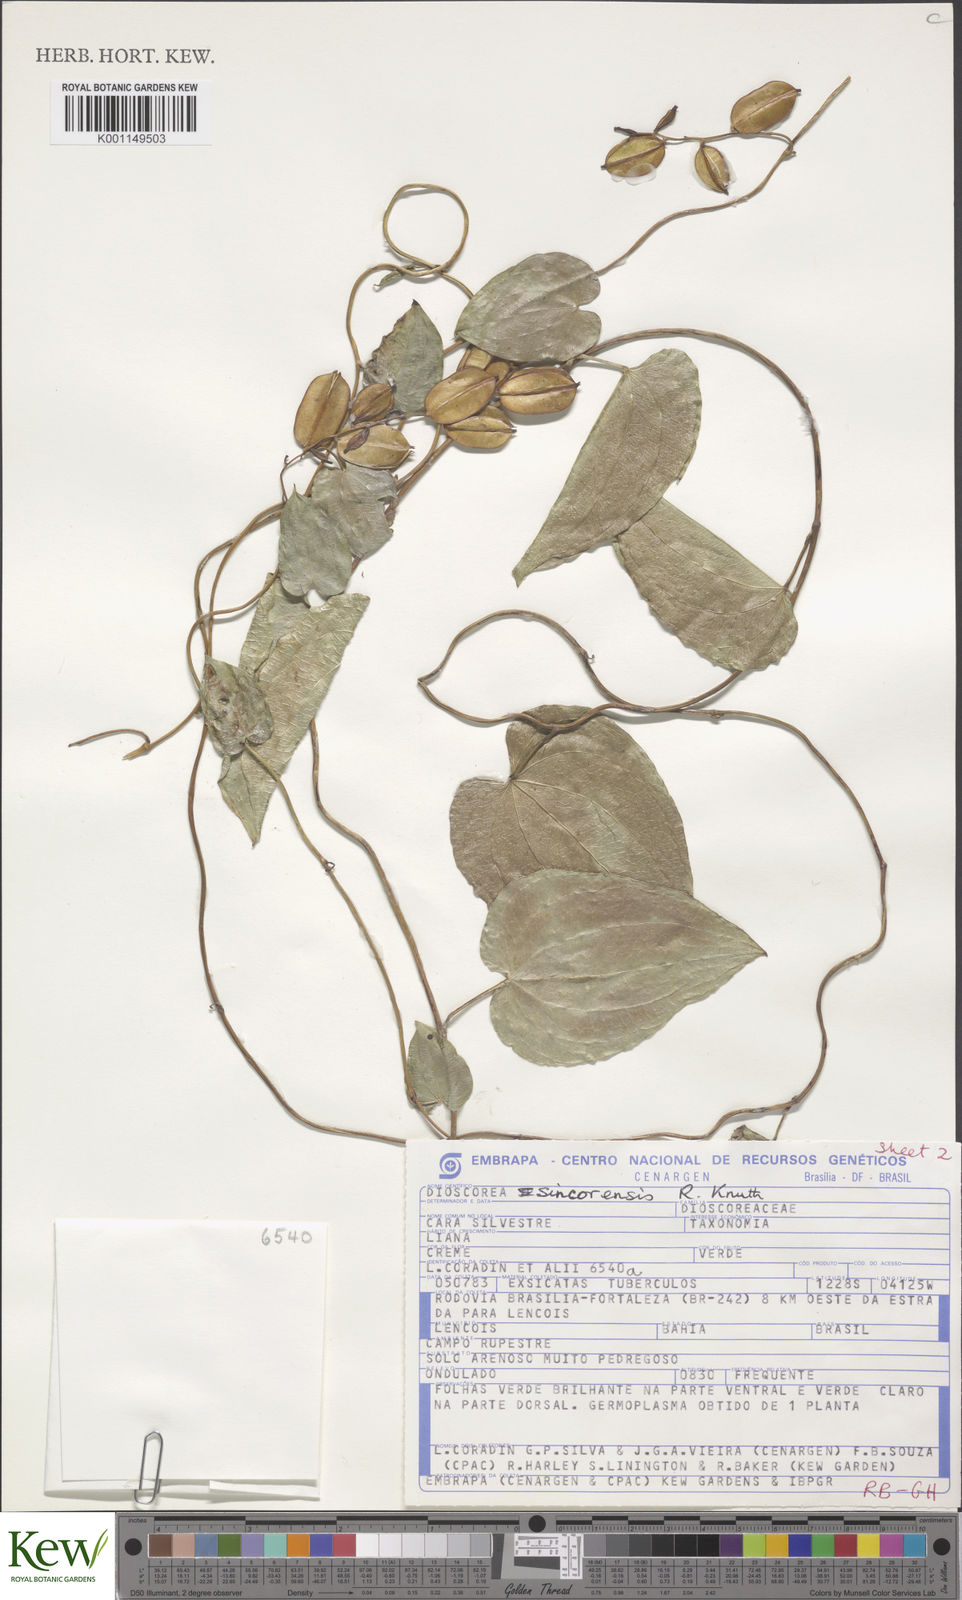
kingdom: Plantae
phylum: Tracheophyta
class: Liliopsida
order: Dioscoreales
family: Dioscoreaceae
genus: Dioscorea
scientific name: Dioscorea sincorensis
